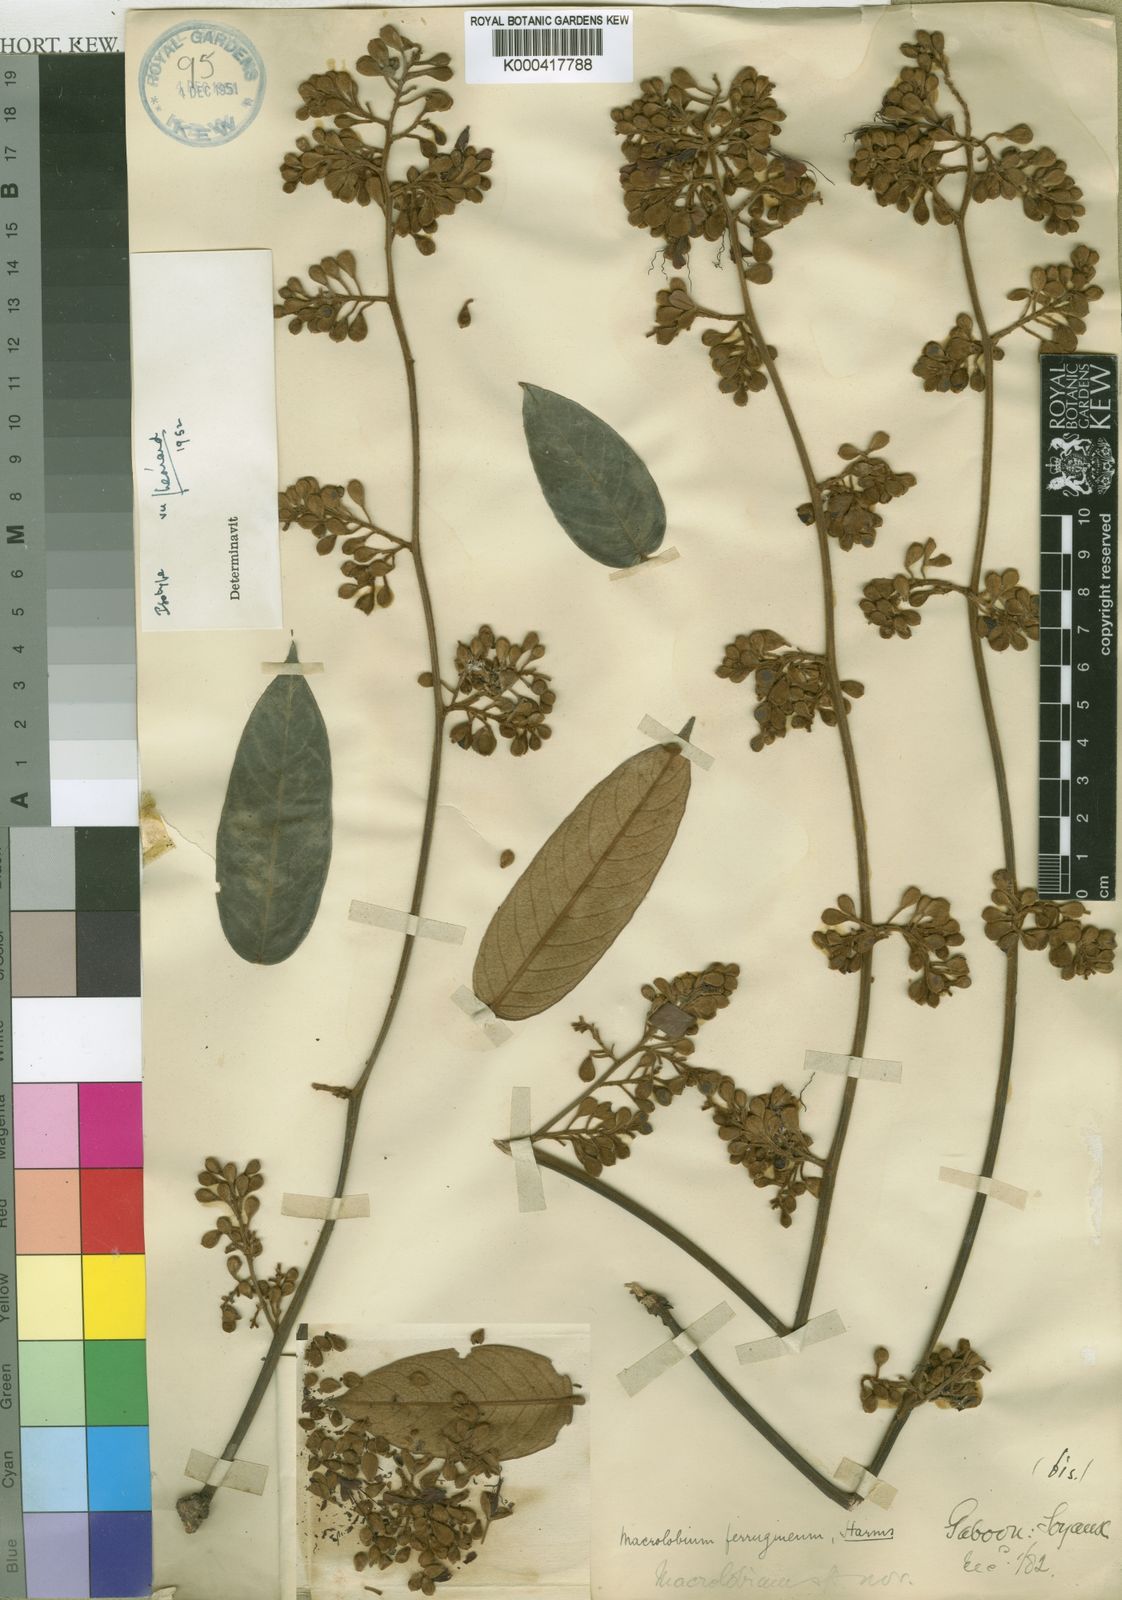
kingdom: Plantae
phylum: Tracheophyta
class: Magnoliopsida
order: Fabales
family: Fabaceae
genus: Anthonotha
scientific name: Anthonotha
